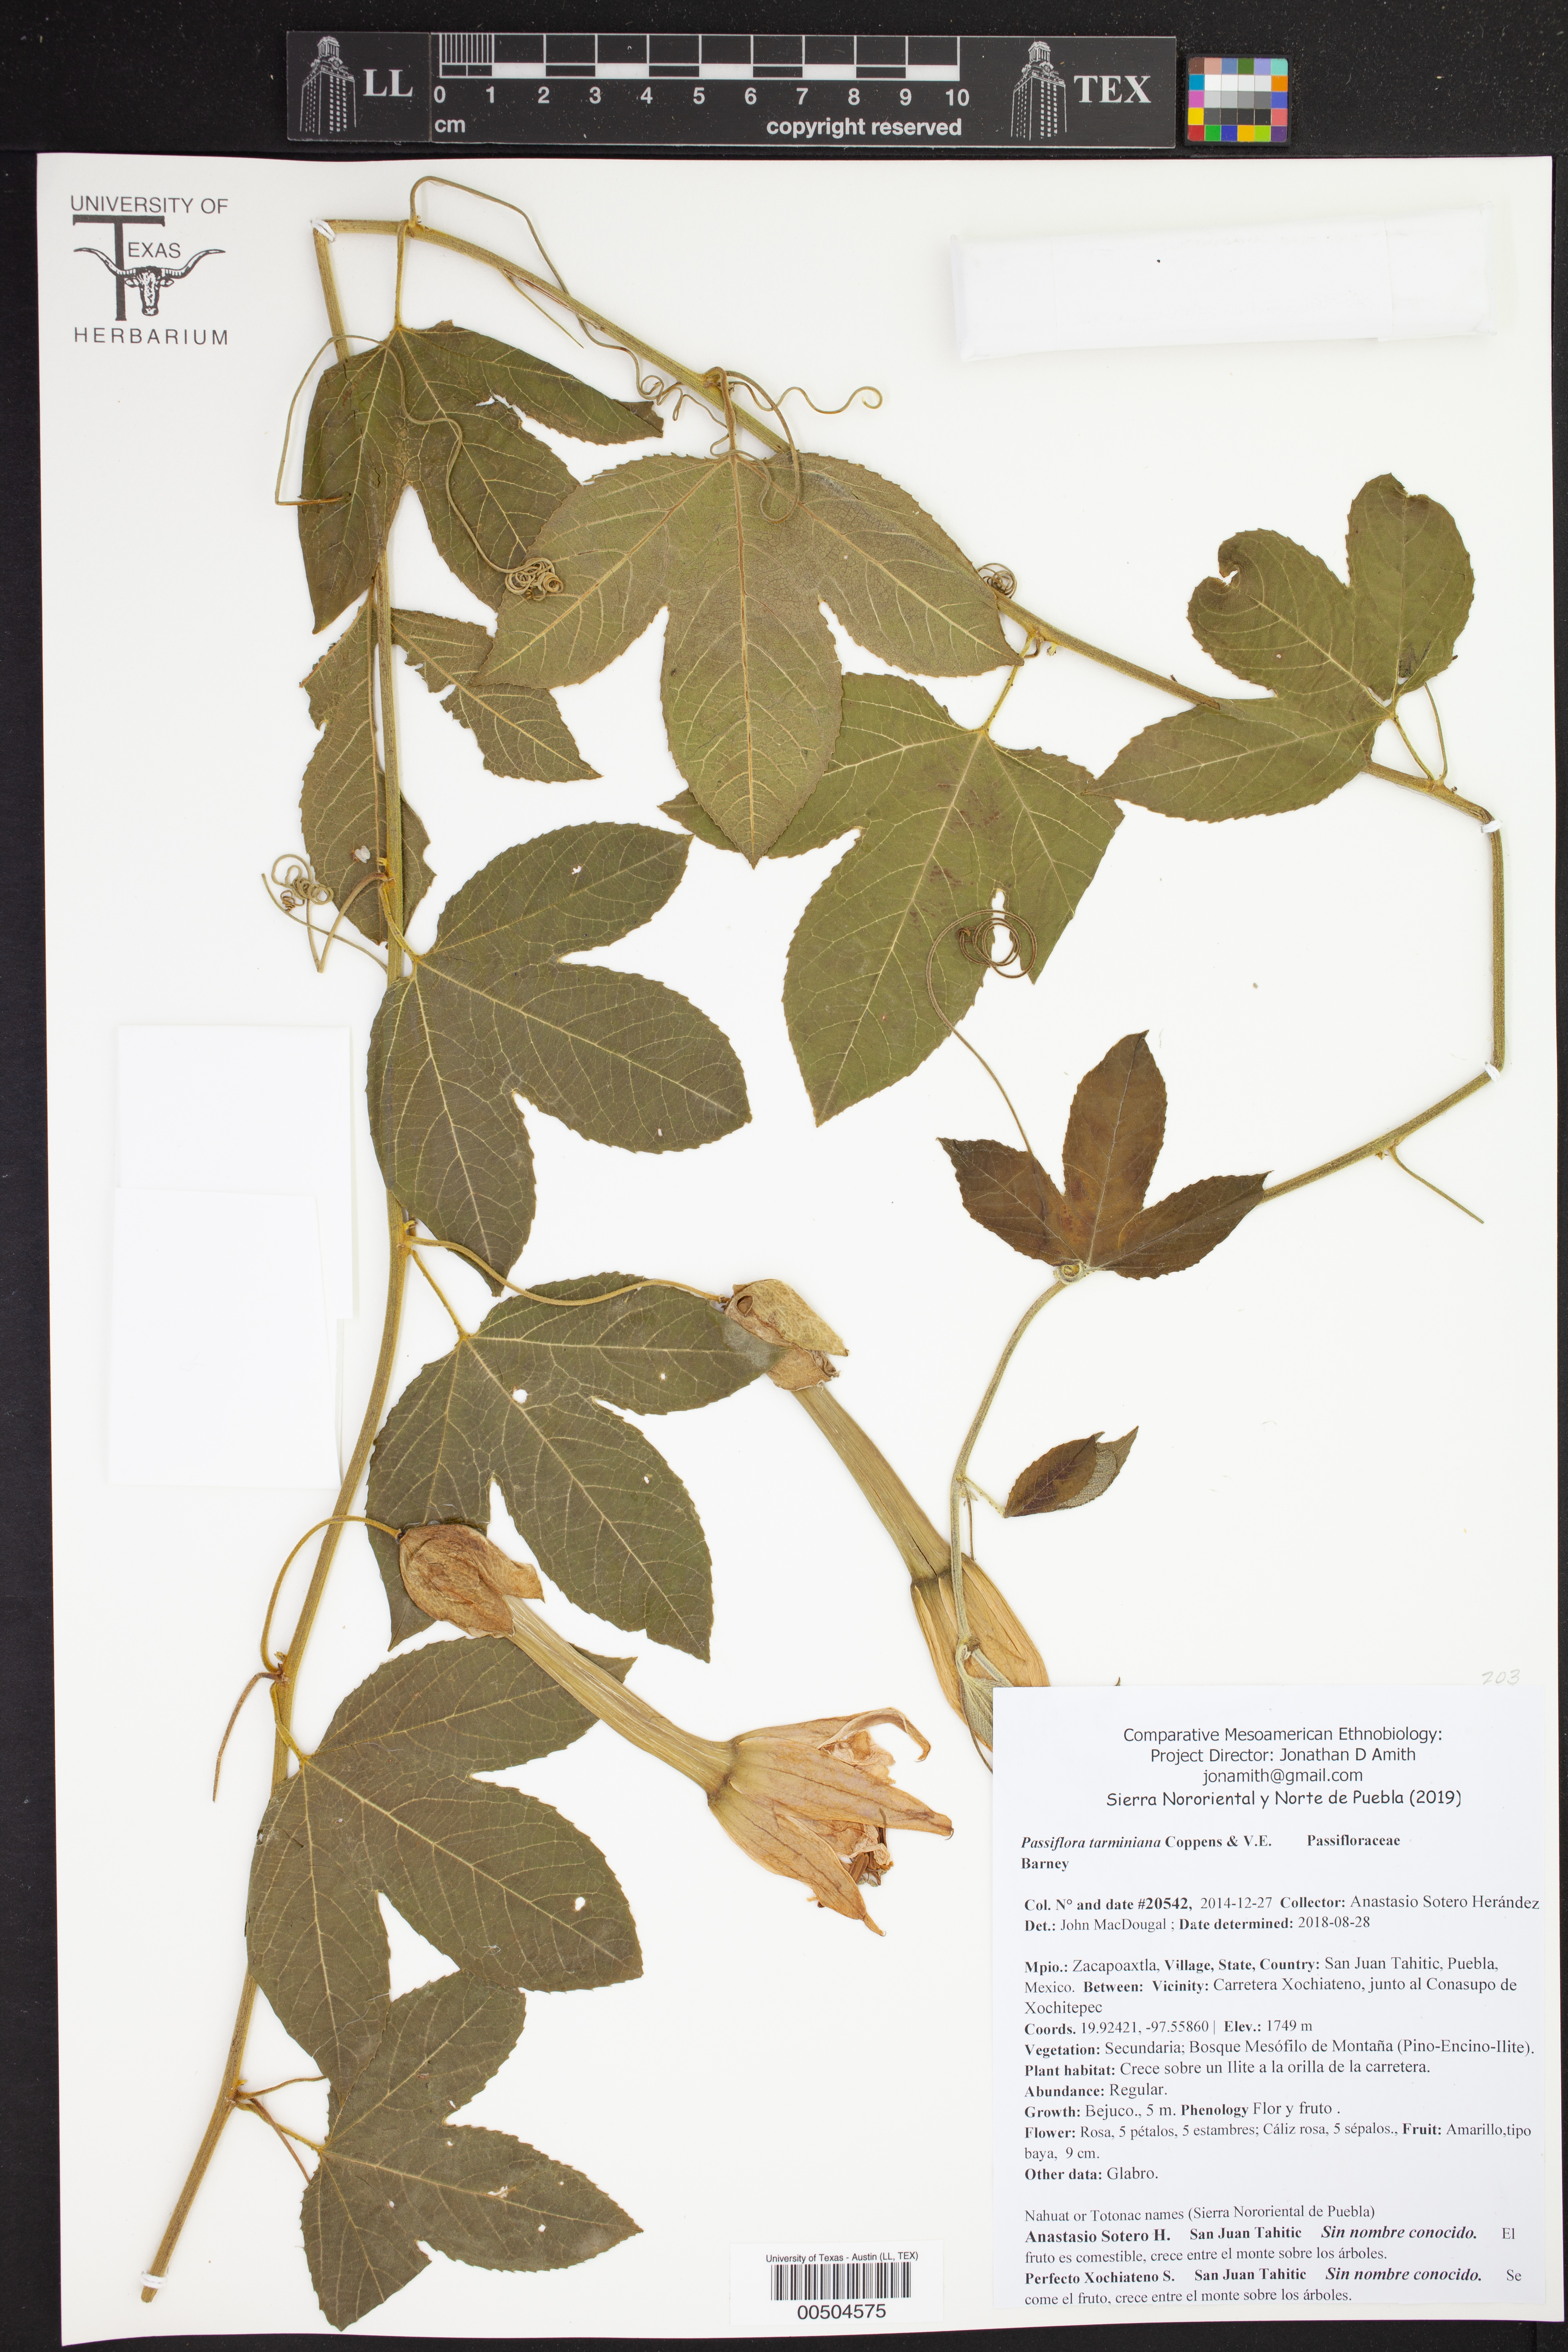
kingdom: Plantae
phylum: Tracheophyta
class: Magnoliopsida
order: Malpighiales
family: Passifloraceae
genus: Passiflora
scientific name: Passiflora tarminiana
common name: Banana poka
